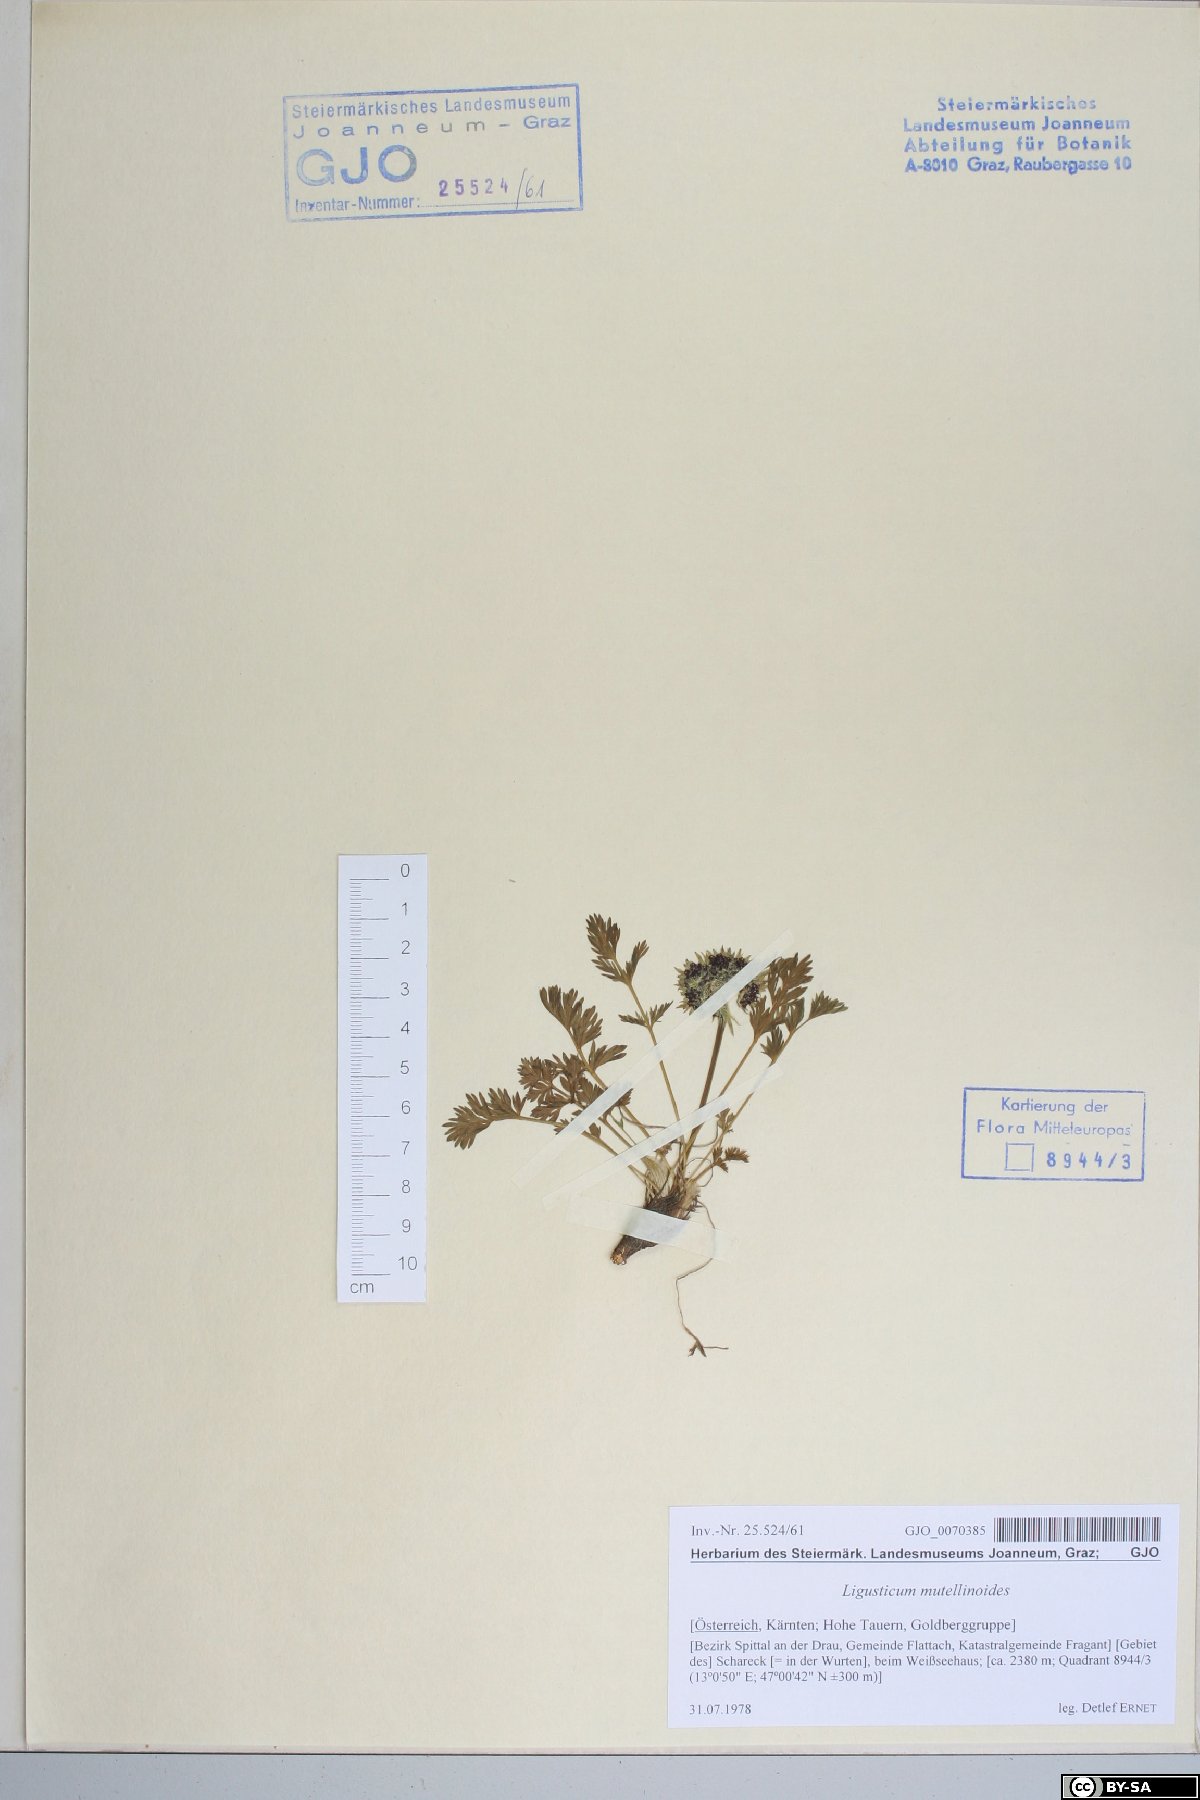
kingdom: Plantae
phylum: Tracheophyta
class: Magnoliopsida
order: Apiales
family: Apiaceae
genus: Pachypleurum
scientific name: Pachypleurum mutellinoides
